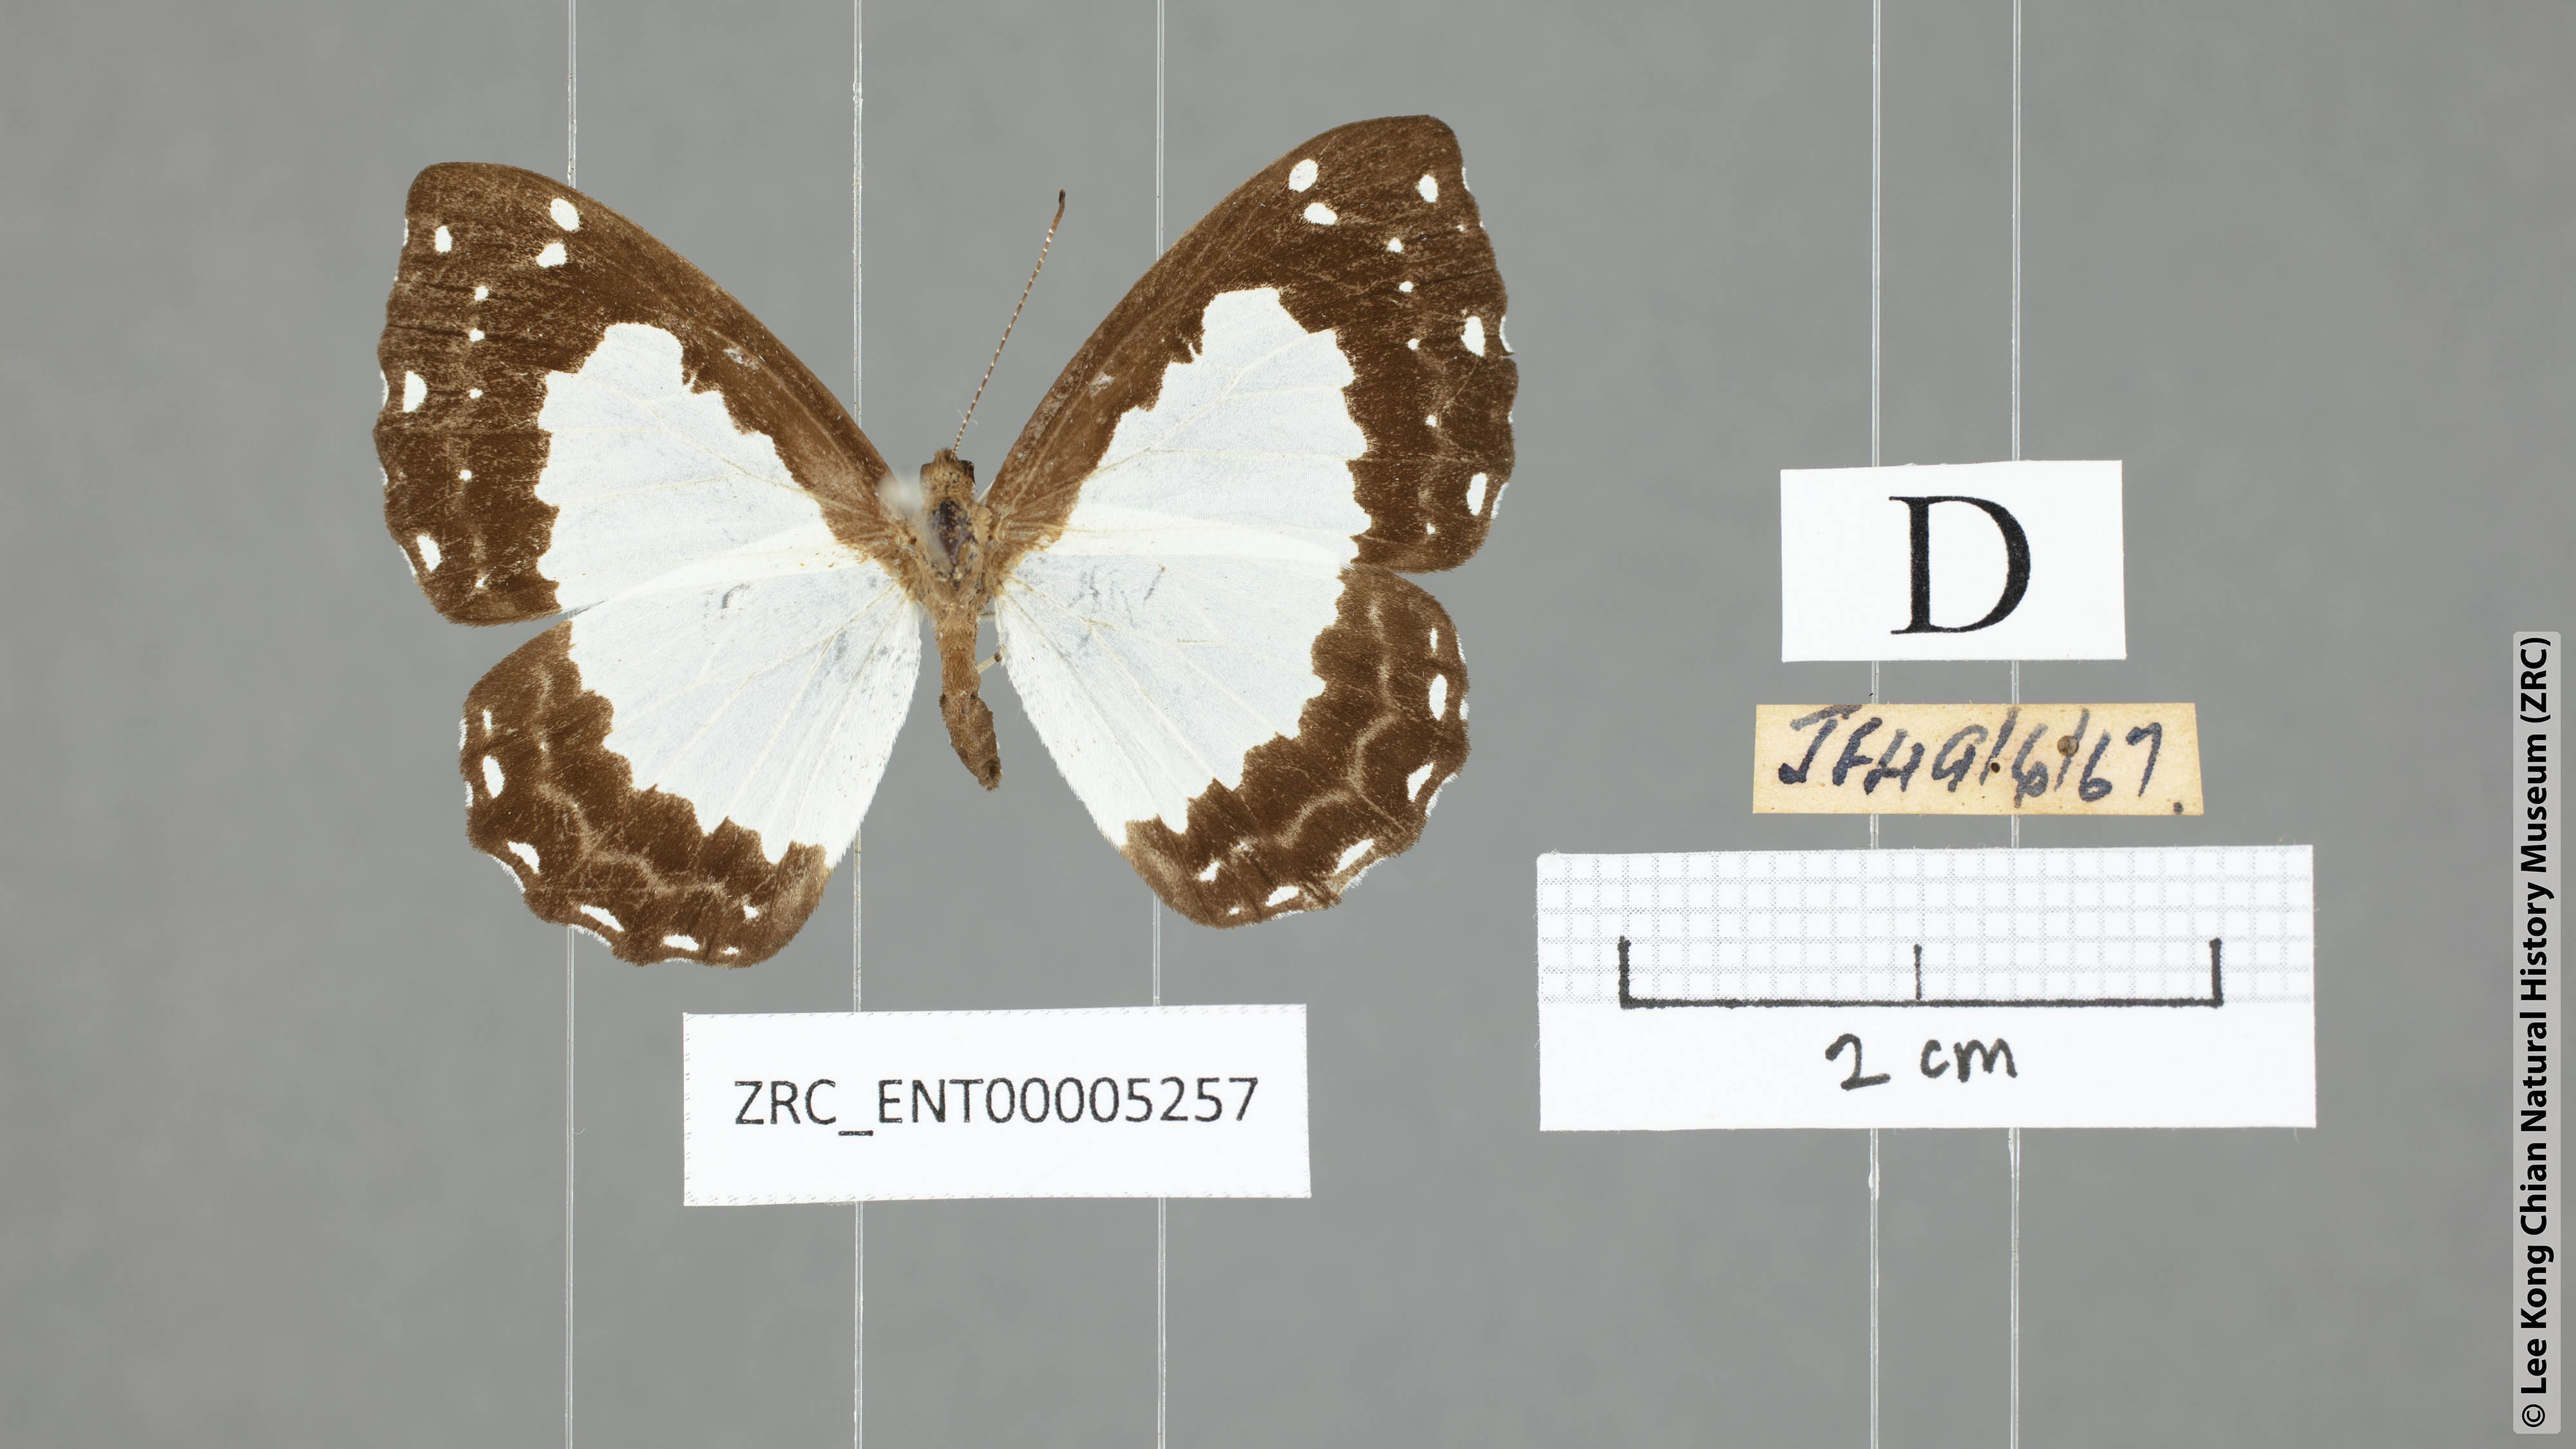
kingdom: Animalia
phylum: Arthropoda
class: Insecta
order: Lepidoptera
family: Riodinidae
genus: Stiboges
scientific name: Stiboges nymphidia
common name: Columbine
